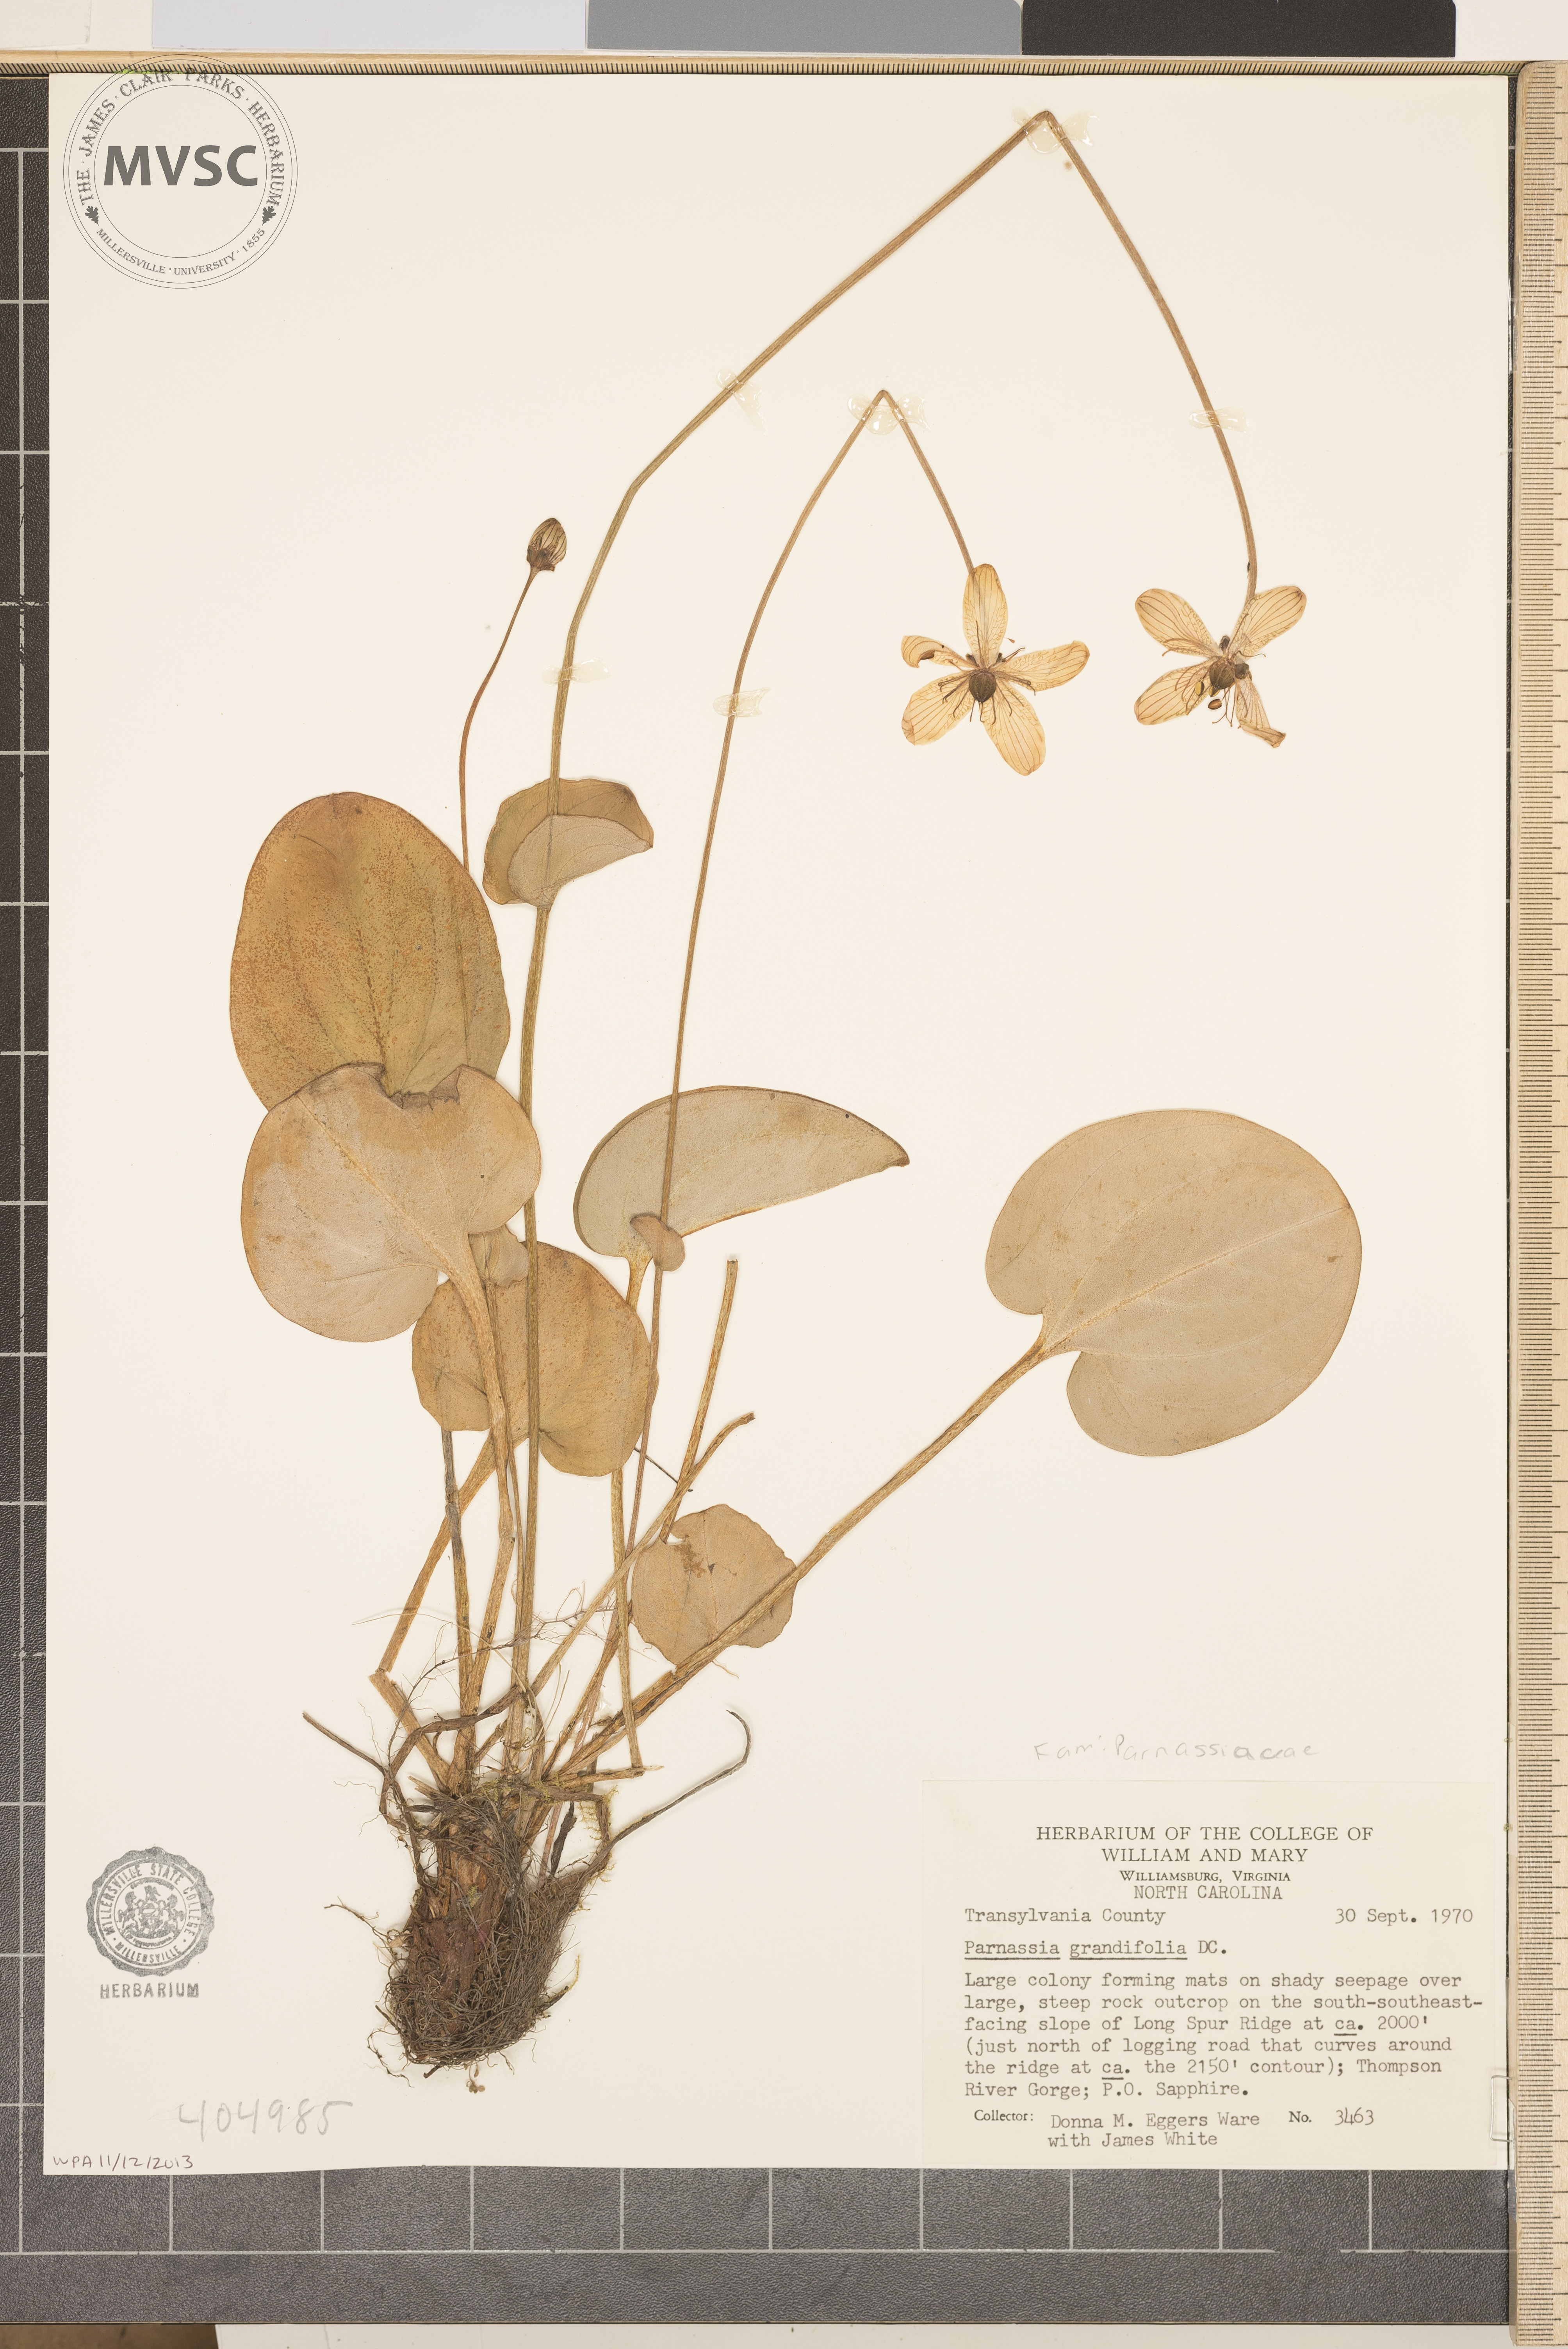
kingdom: Plantae
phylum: Tracheophyta
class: Magnoliopsida
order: Celastrales
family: Parnassiaceae
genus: Parnassia
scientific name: Parnassia grandifolia
